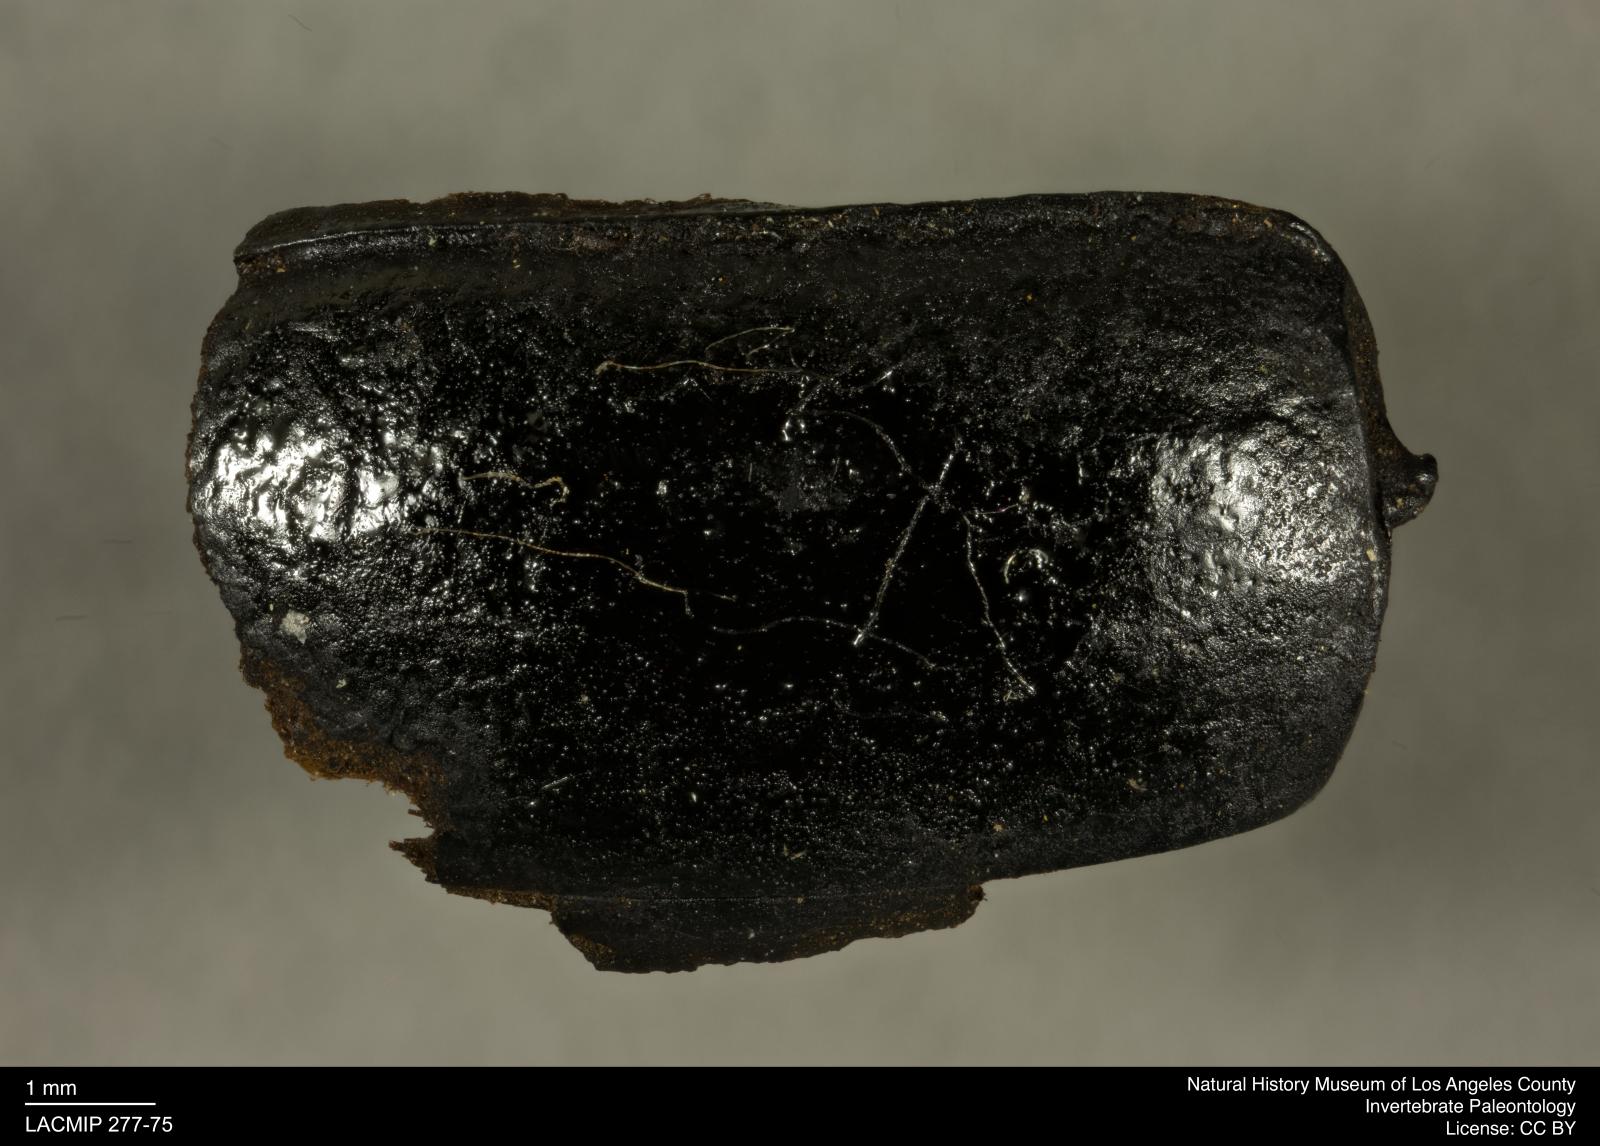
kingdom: Animalia
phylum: Arthropoda
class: Insecta
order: Coleoptera
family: Tenebrionidae
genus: Coniontis
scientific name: Coniontis abdominalis
